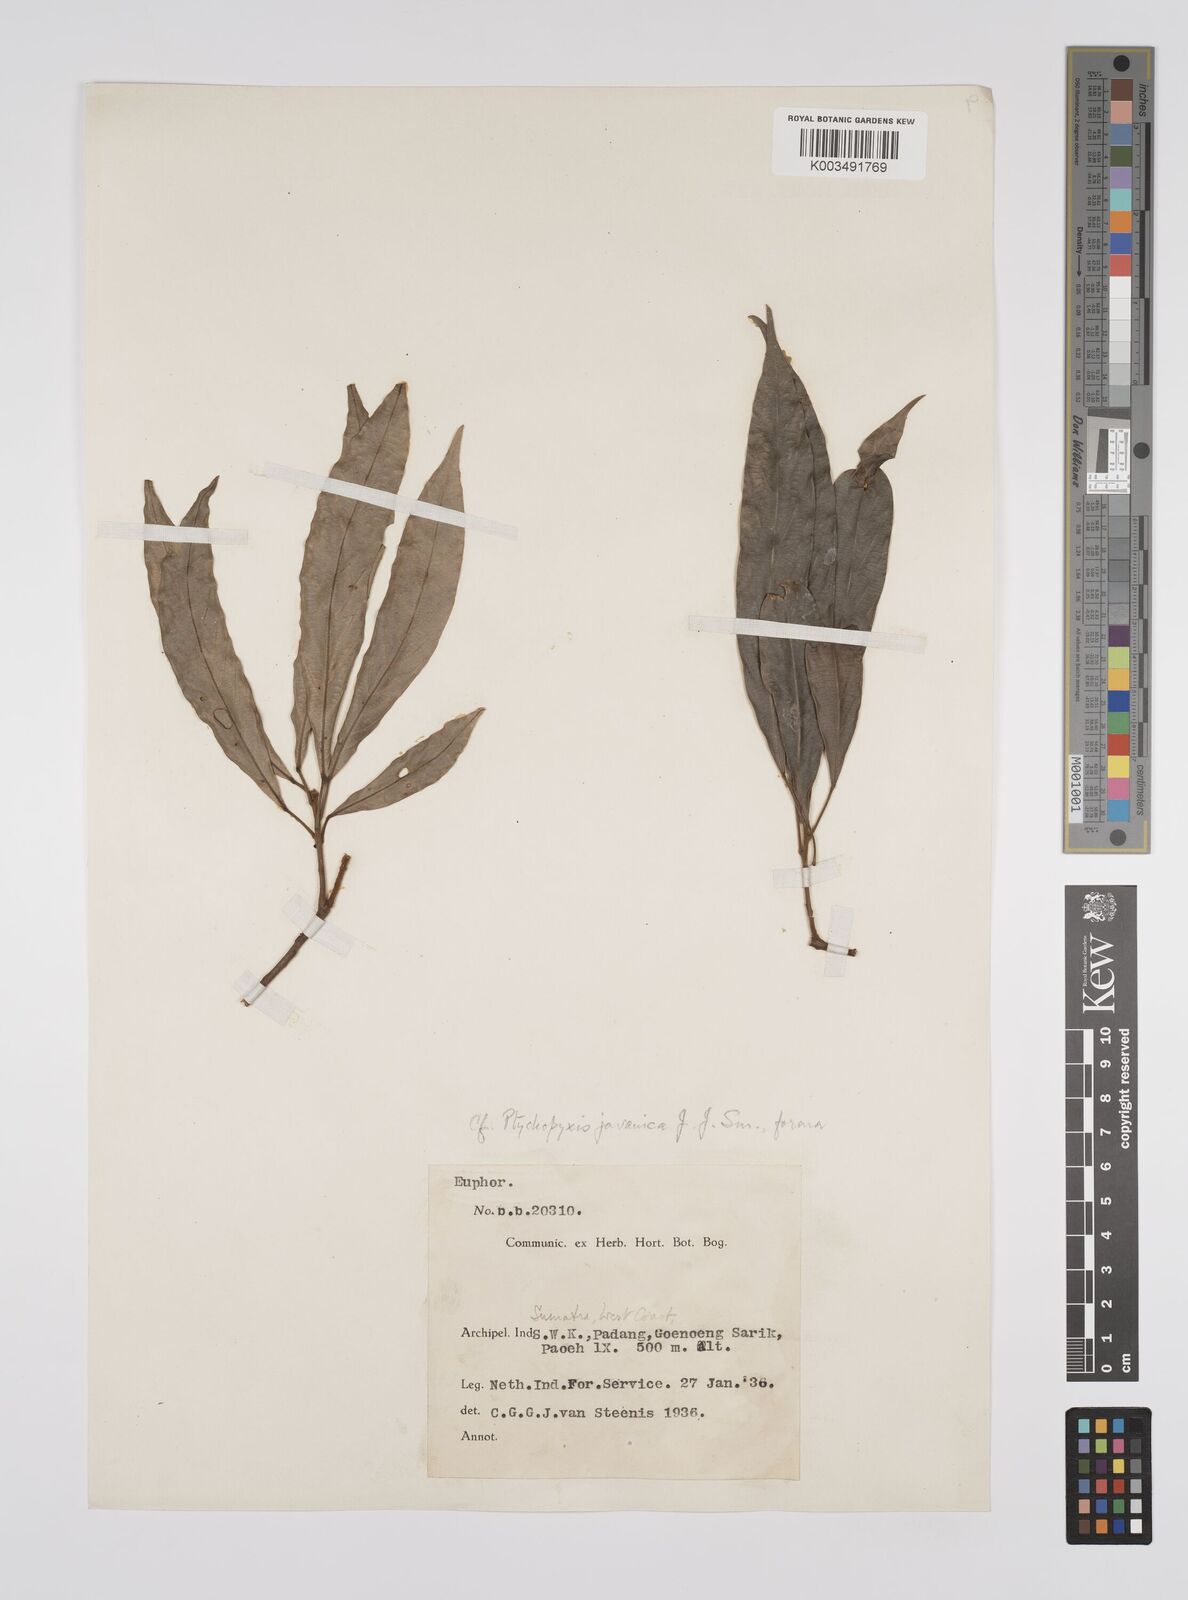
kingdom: Plantae
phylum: Tracheophyta
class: Magnoliopsida
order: Malpighiales
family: Euphorbiaceae
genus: Ptychopyxis
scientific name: Ptychopyxis javanica
